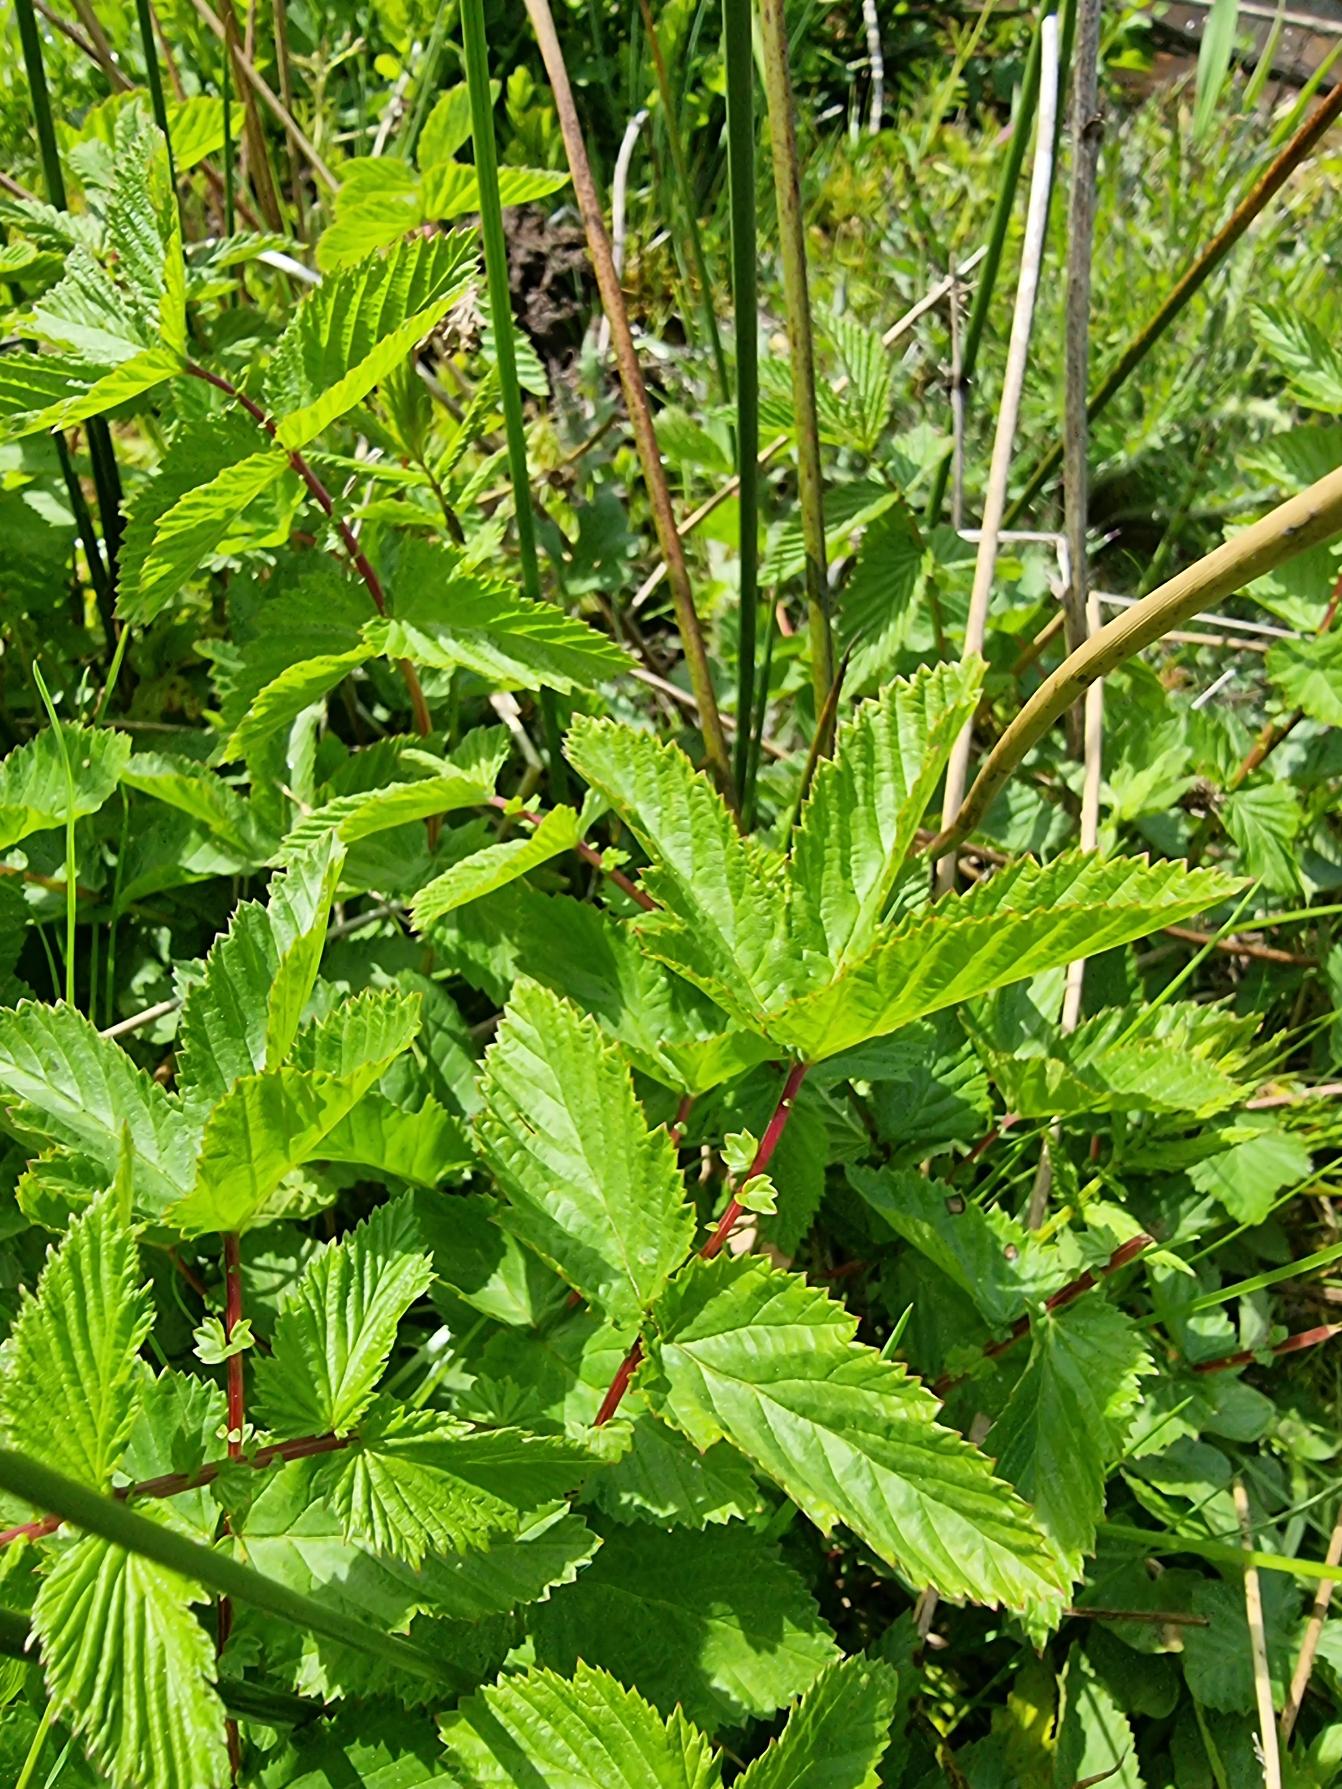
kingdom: Plantae
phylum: Tracheophyta
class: Magnoliopsida
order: Rosales
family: Rosaceae
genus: Filipendula
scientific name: Filipendula ulmaria
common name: Almindelig mjødurt
